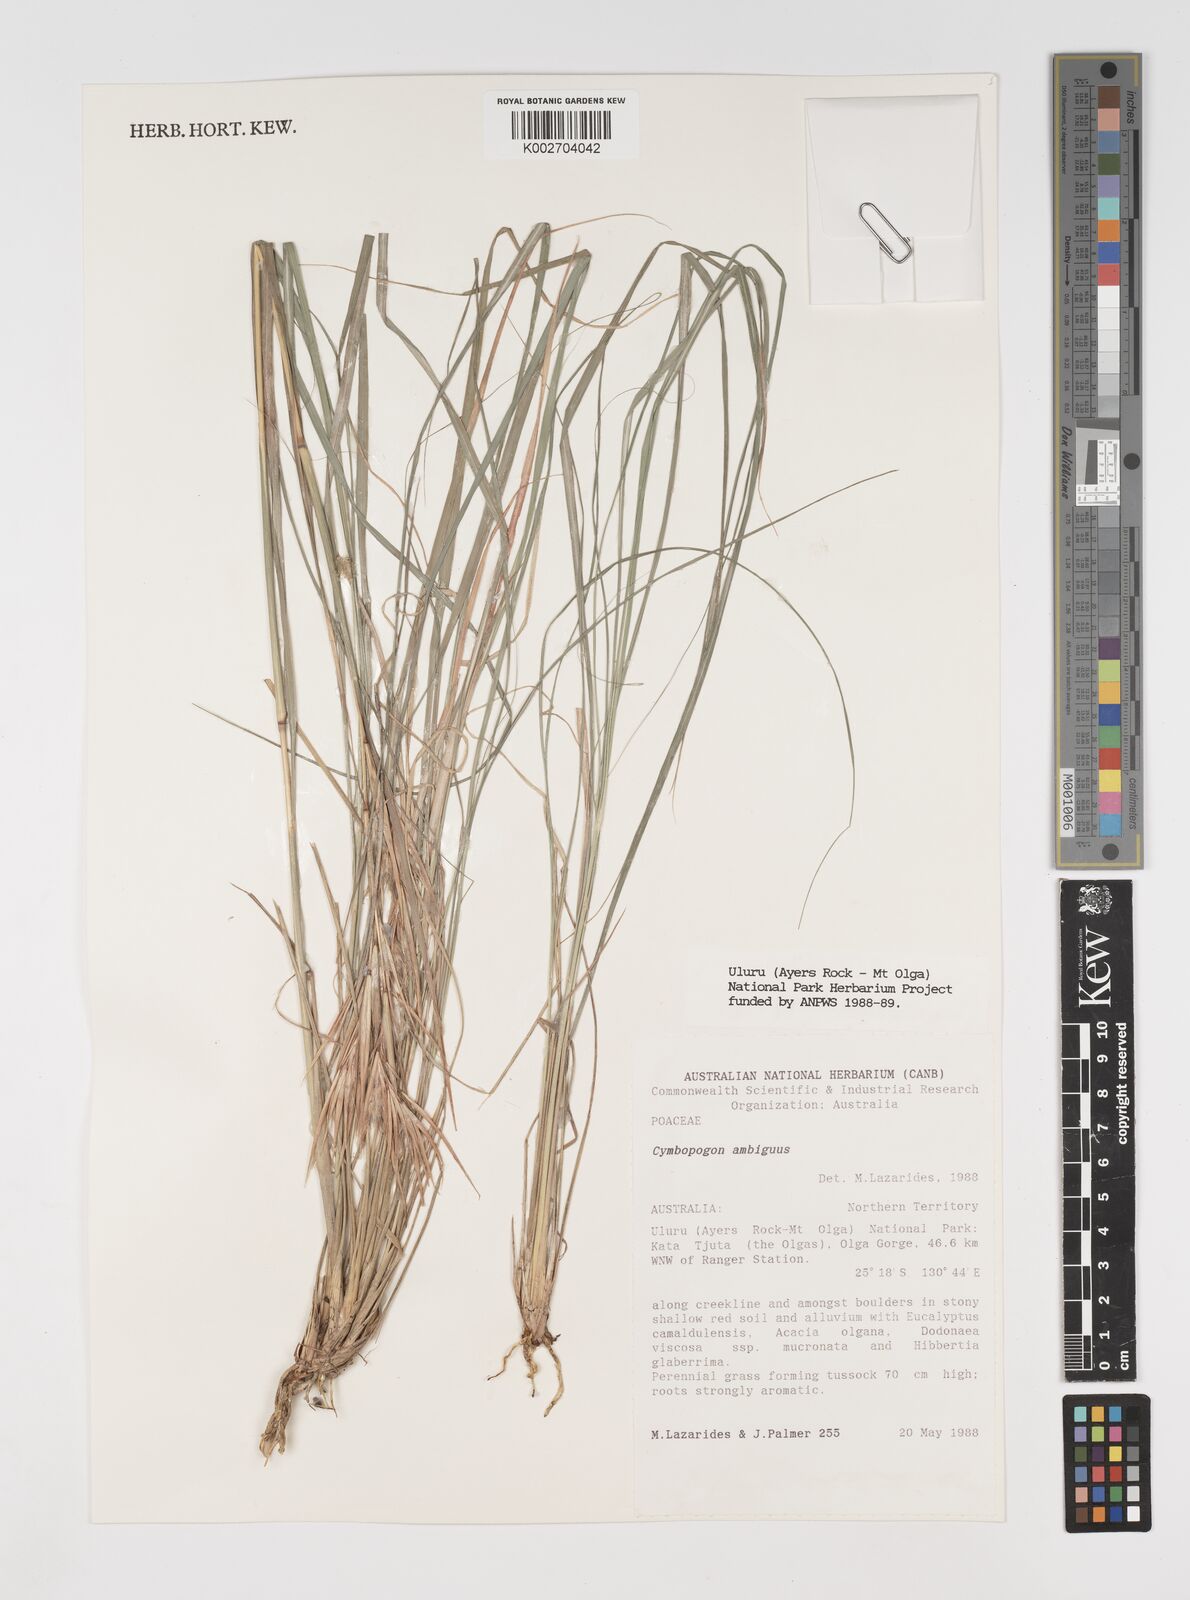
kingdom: Plantae
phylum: Tracheophyta
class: Liliopsida
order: Poales
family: Poaceae
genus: Cymbopogon
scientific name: Cymbopogon ambiguus
